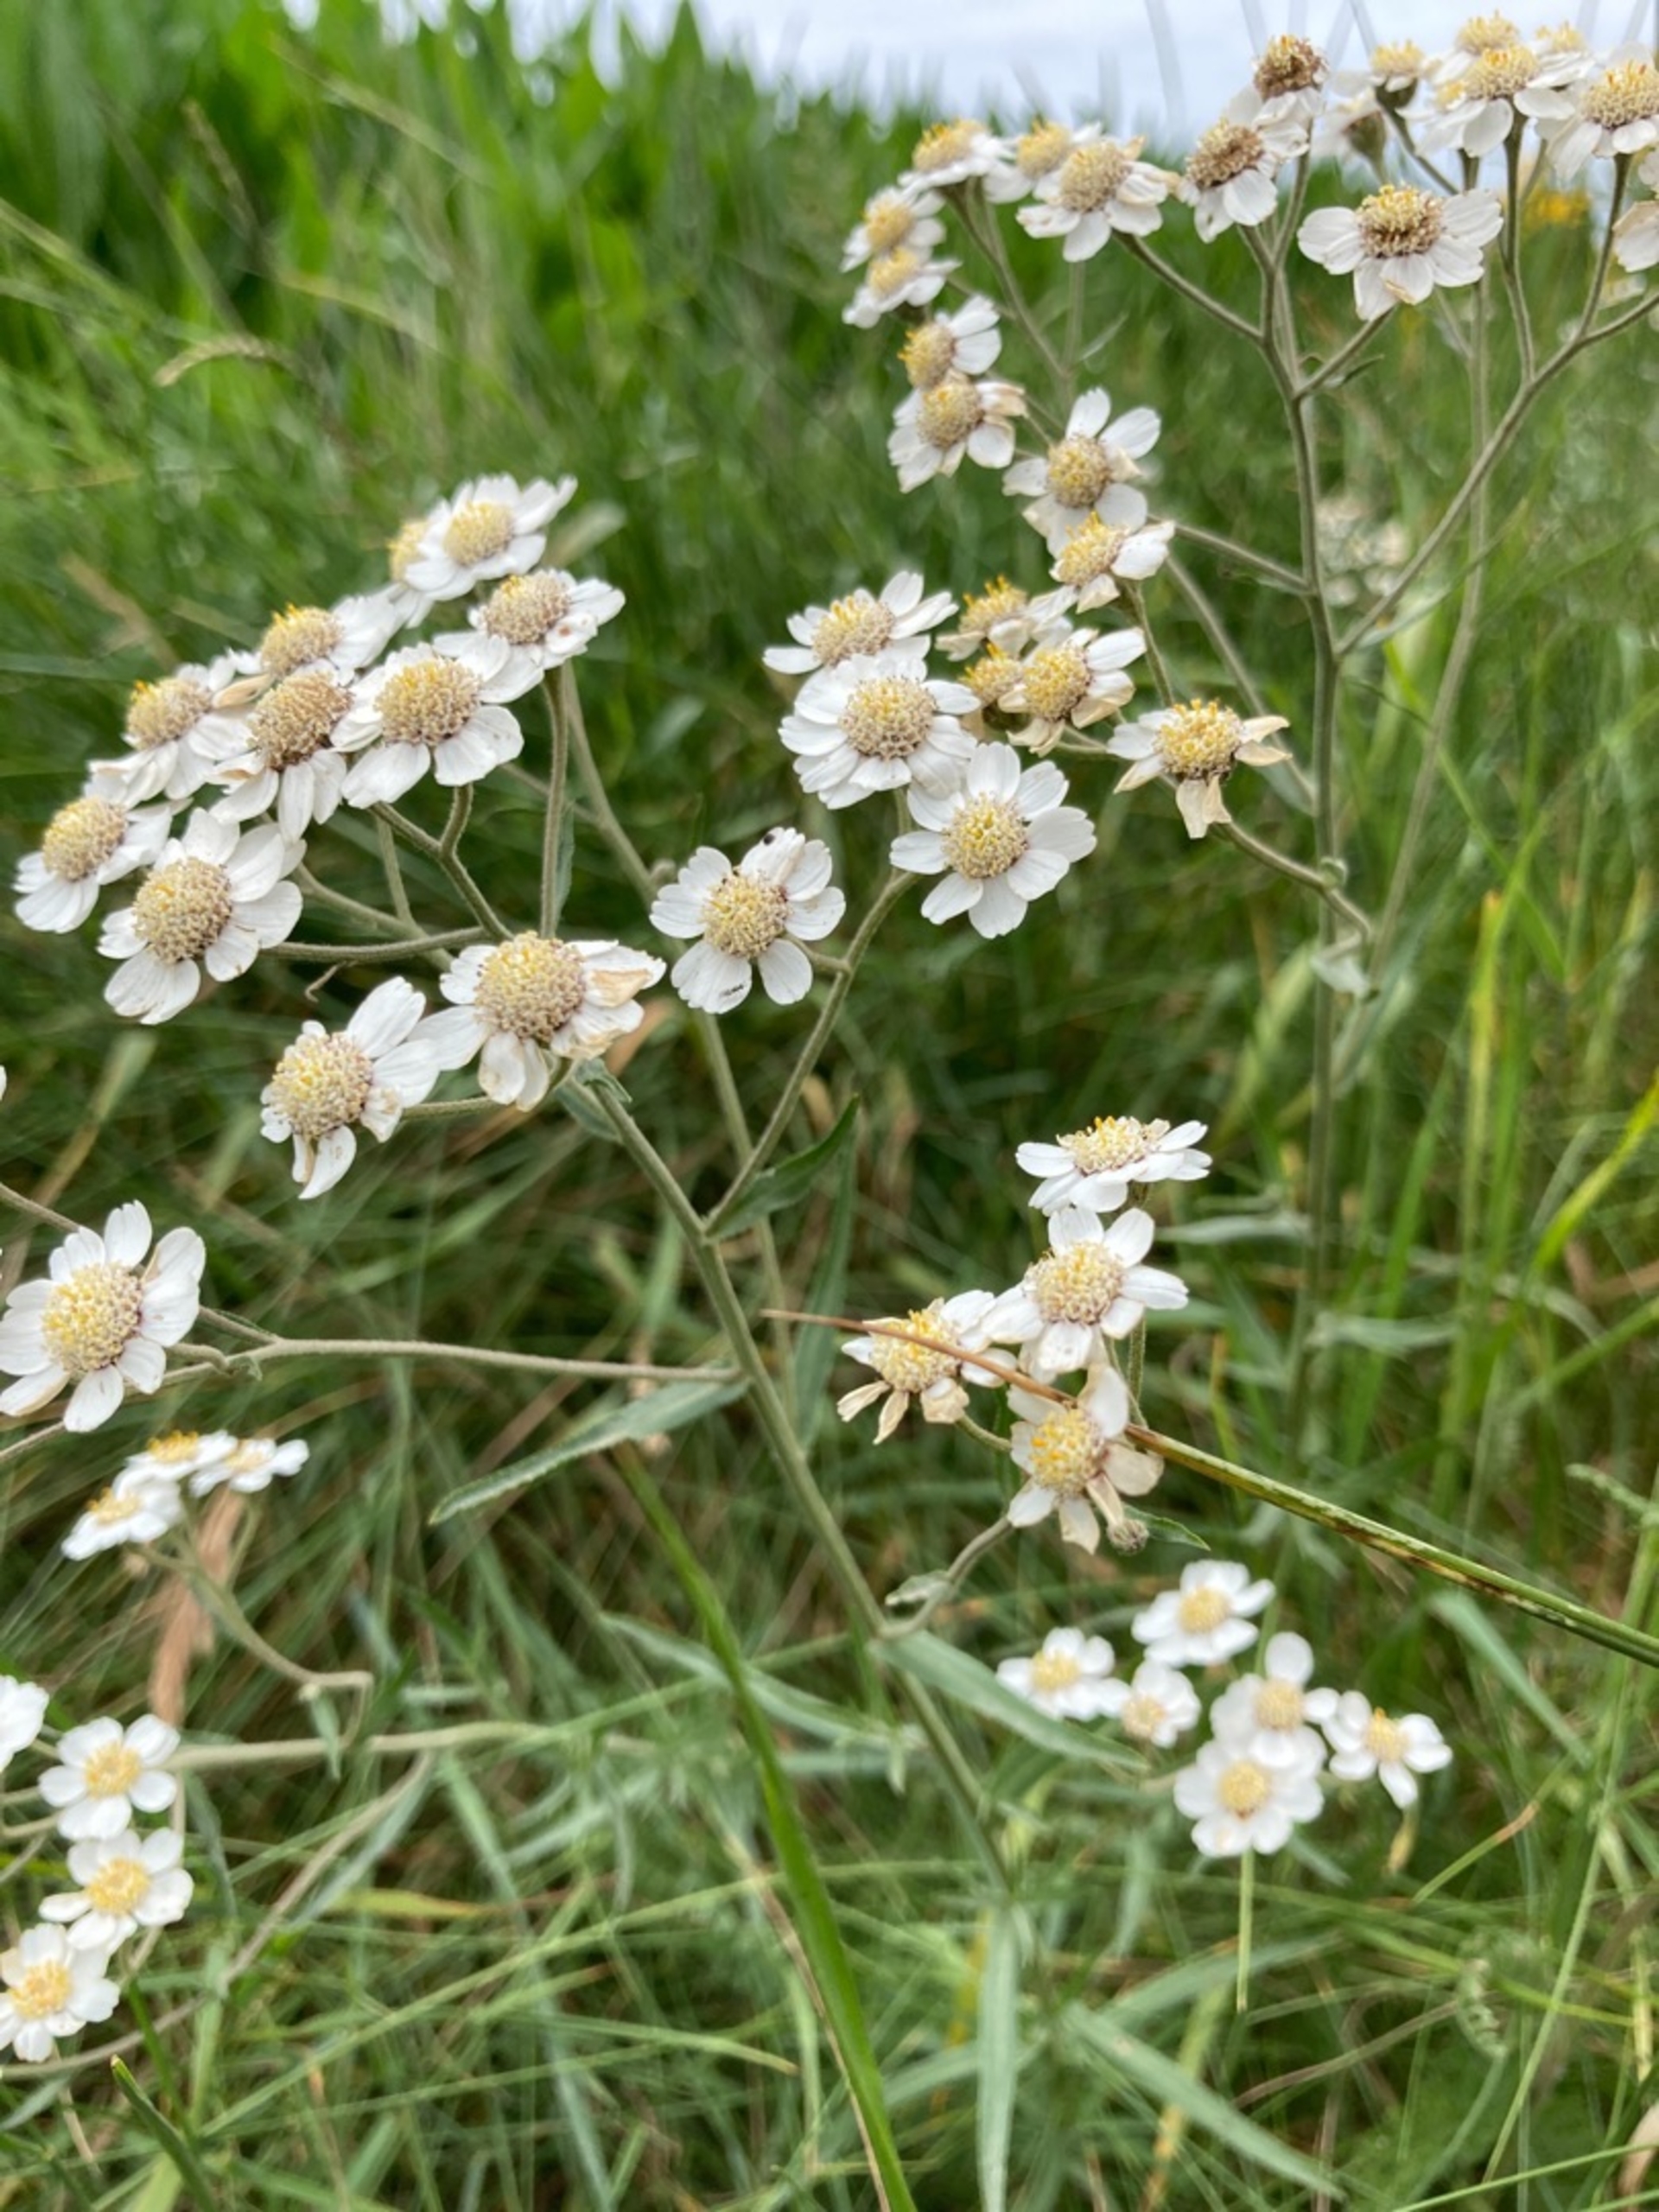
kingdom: Plantae
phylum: Tracheophyta
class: Magnoliopsida
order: Asterales
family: Asteraceae
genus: Achillea
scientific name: Achillea ptarmica
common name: Nyse-røllike
